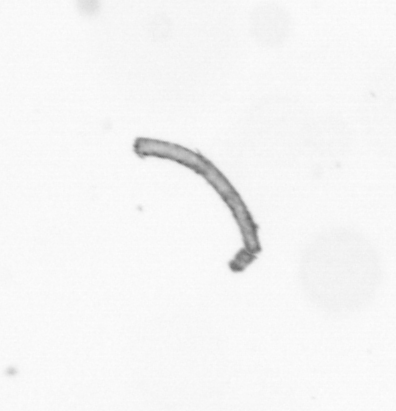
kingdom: Chromista
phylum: Ochrophyta
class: Bacillariophyceae
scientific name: Bacillariophyceae
